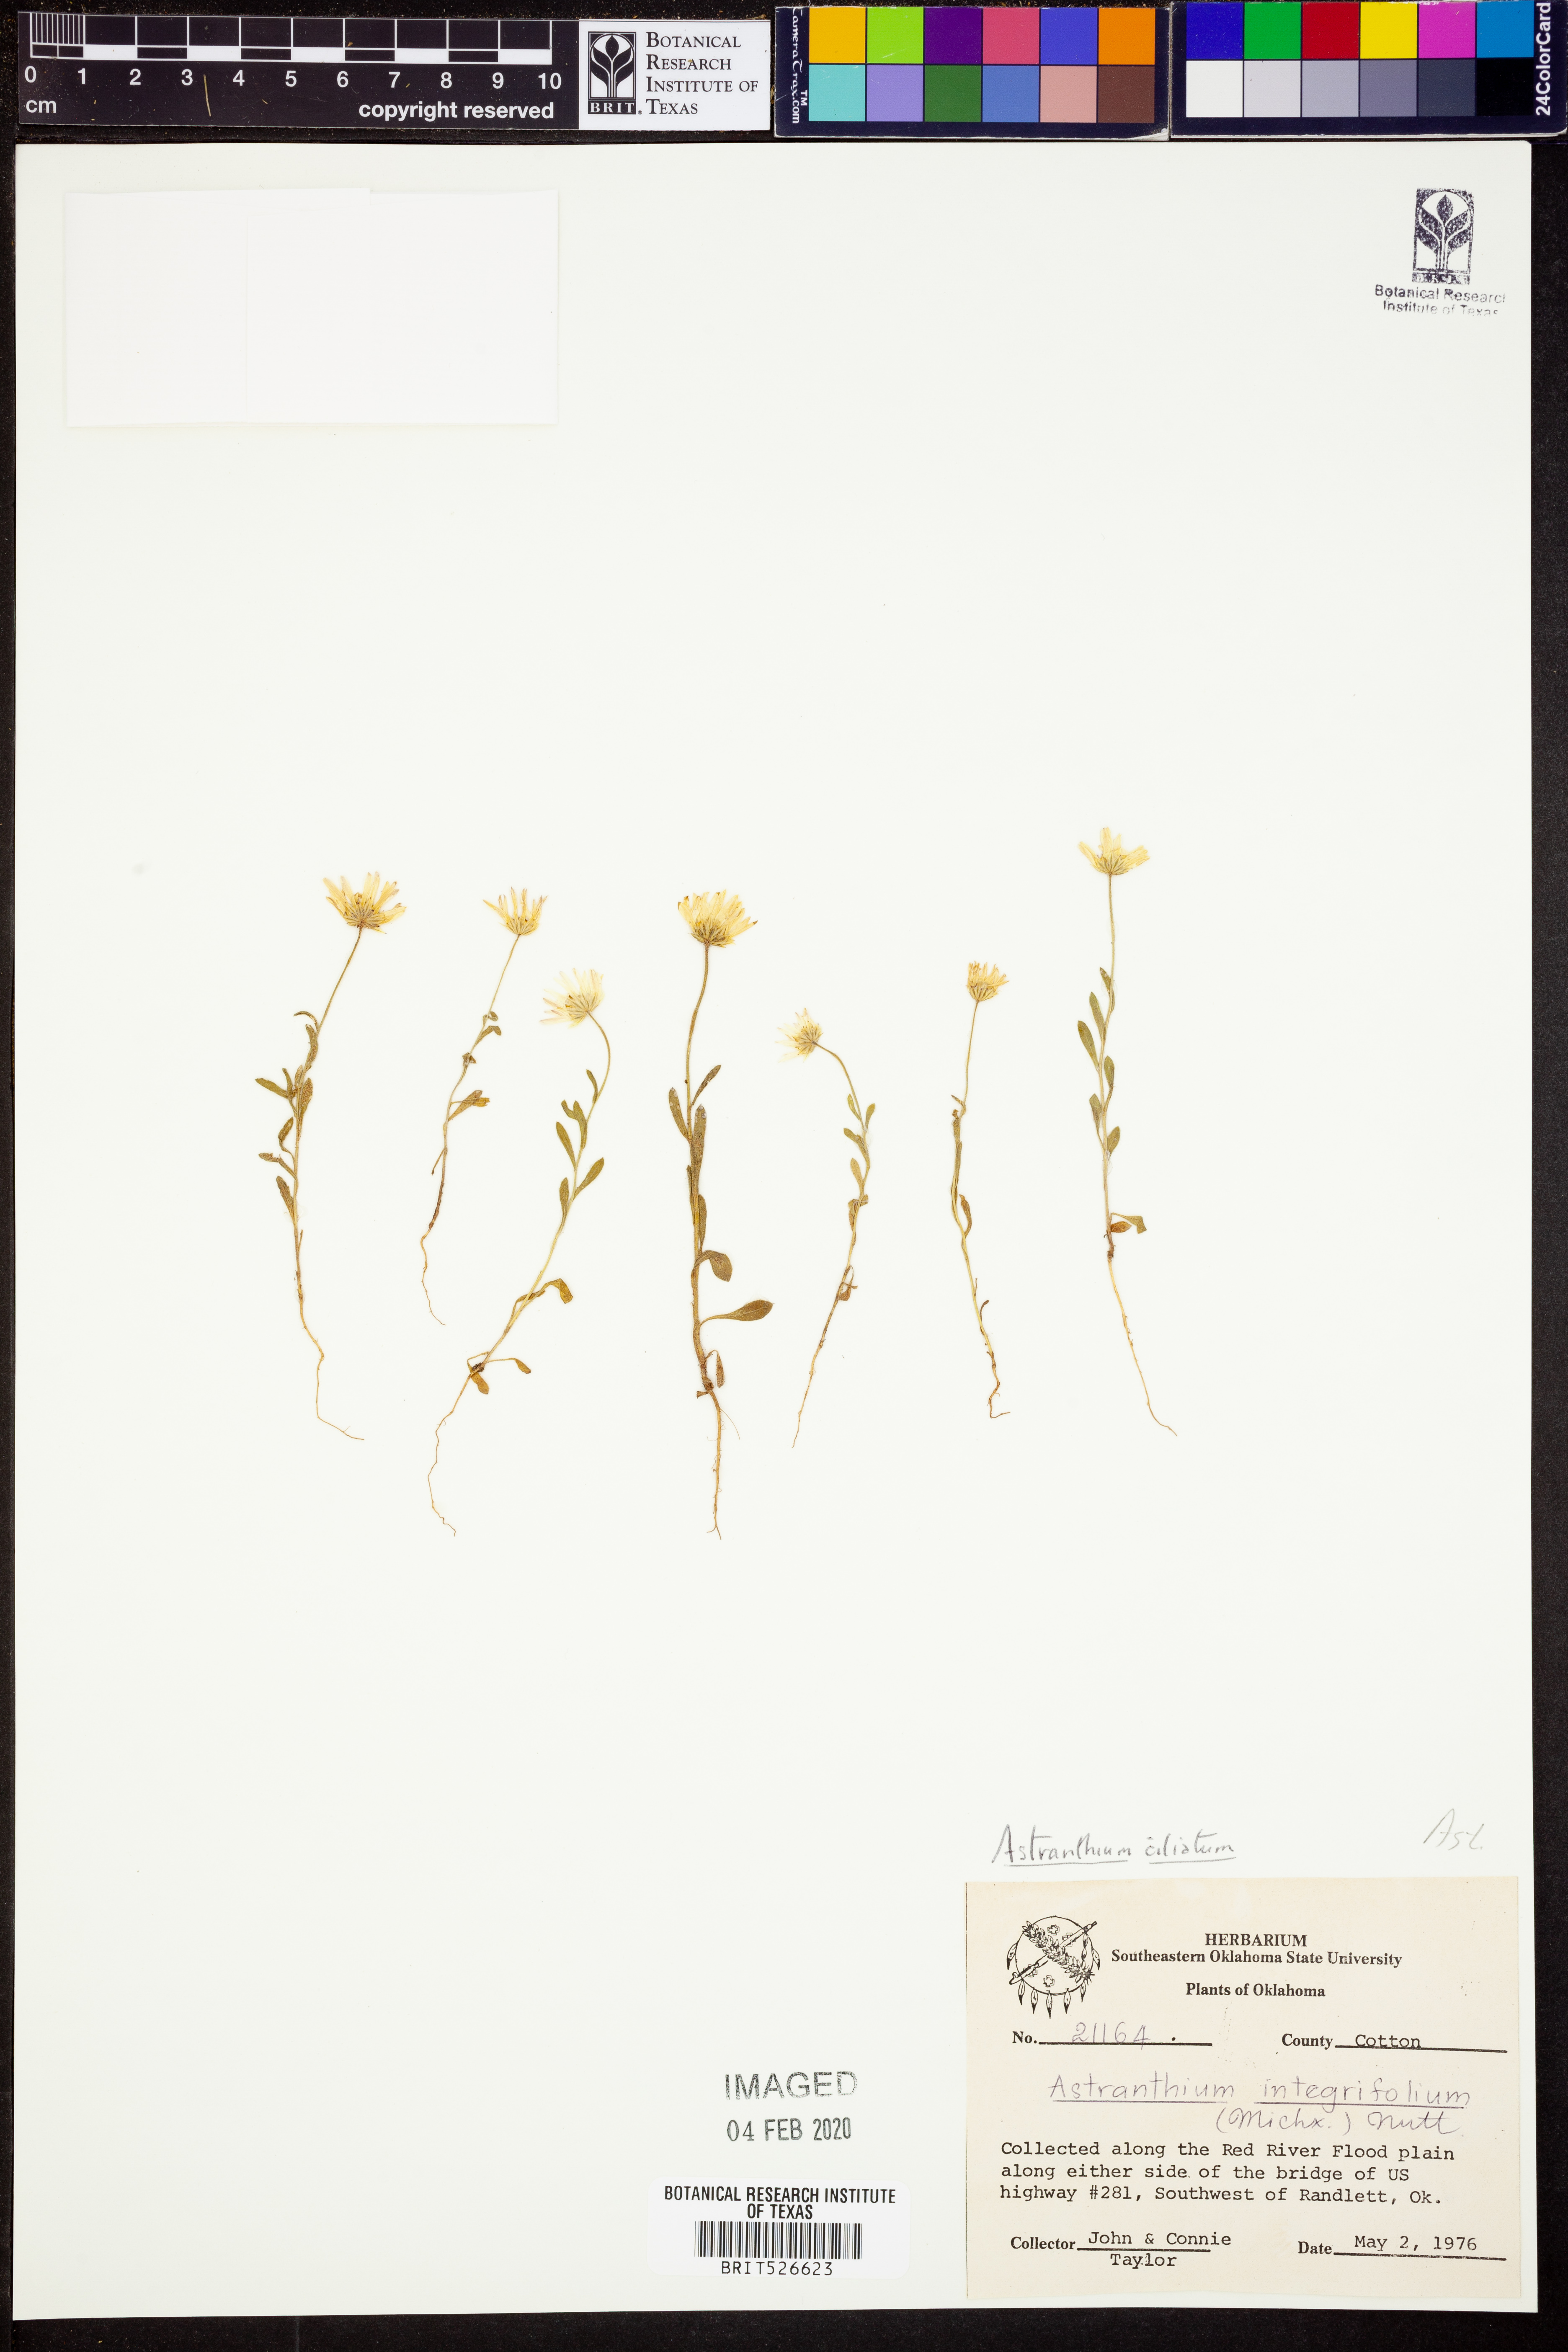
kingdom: Plantae
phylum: Tracheophyta
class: Magnoliopsida
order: Asterales
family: Asteraceae
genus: Astranthium
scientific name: Astranthium ciliatum
